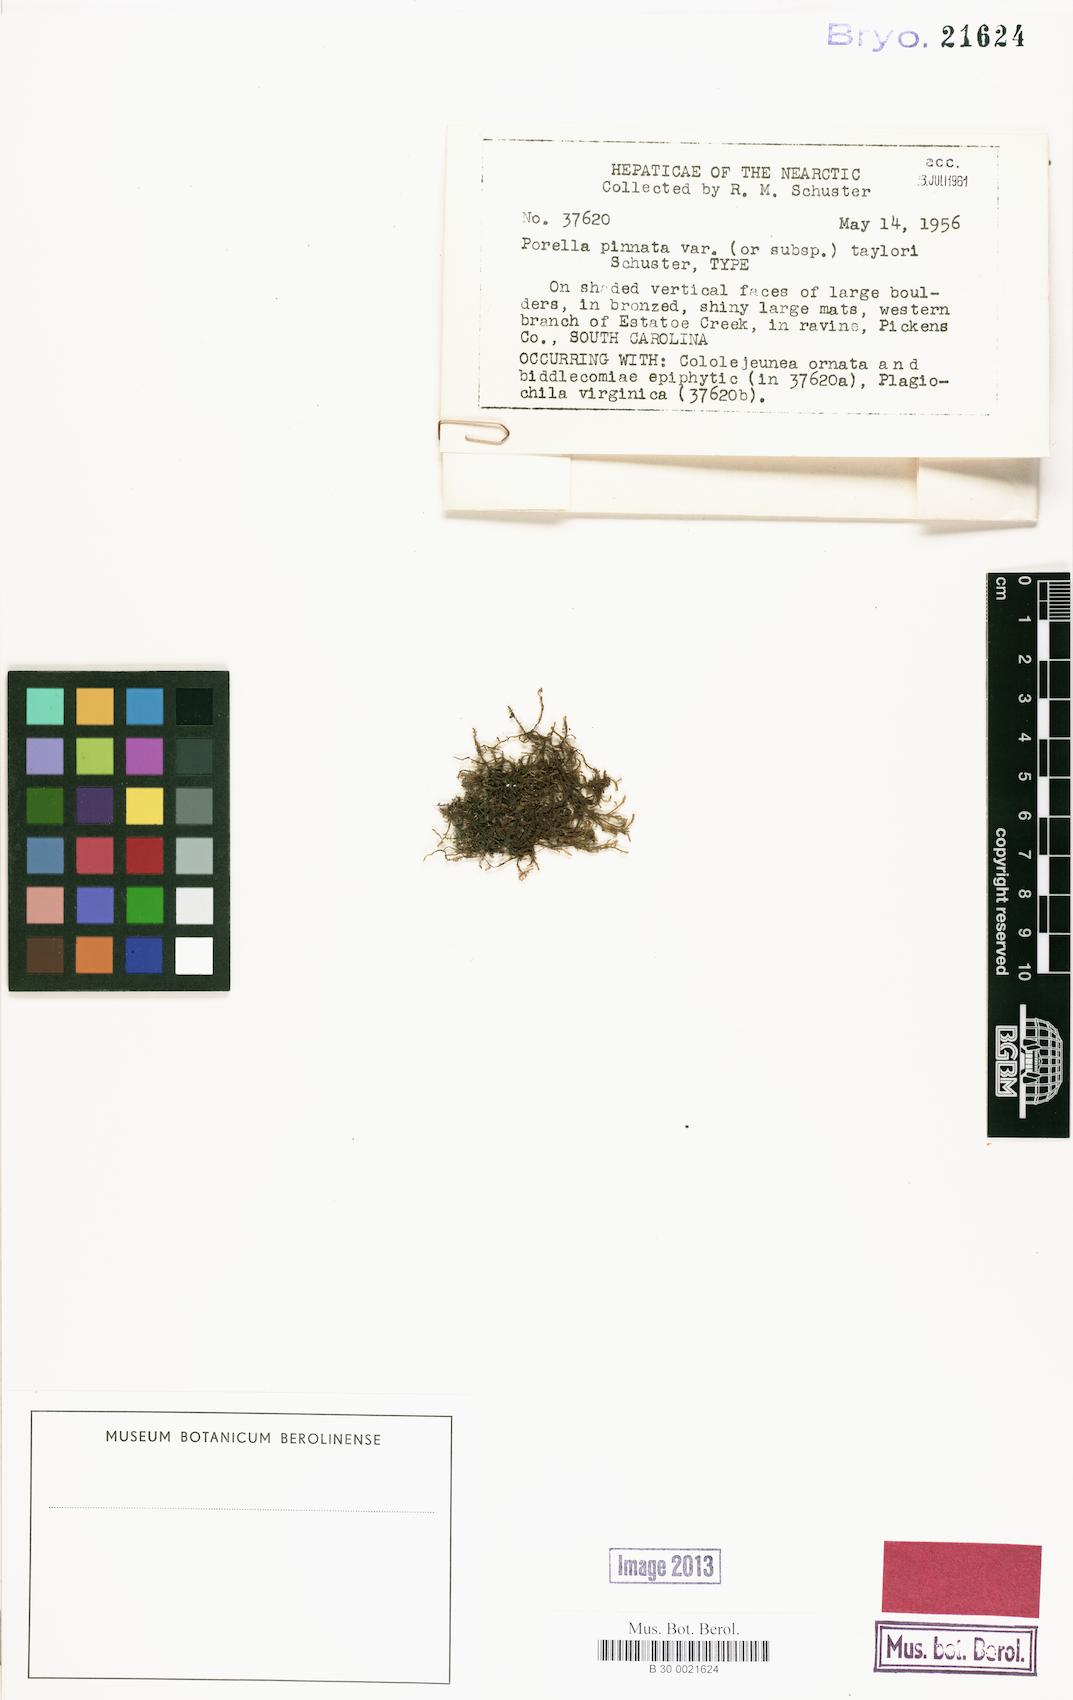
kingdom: Plantae
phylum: Marchantiophyta
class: Jungermanniopsida
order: Porellales
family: Porellaceae
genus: Porella
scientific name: Porella pinnata
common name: Pinnate scalewort
